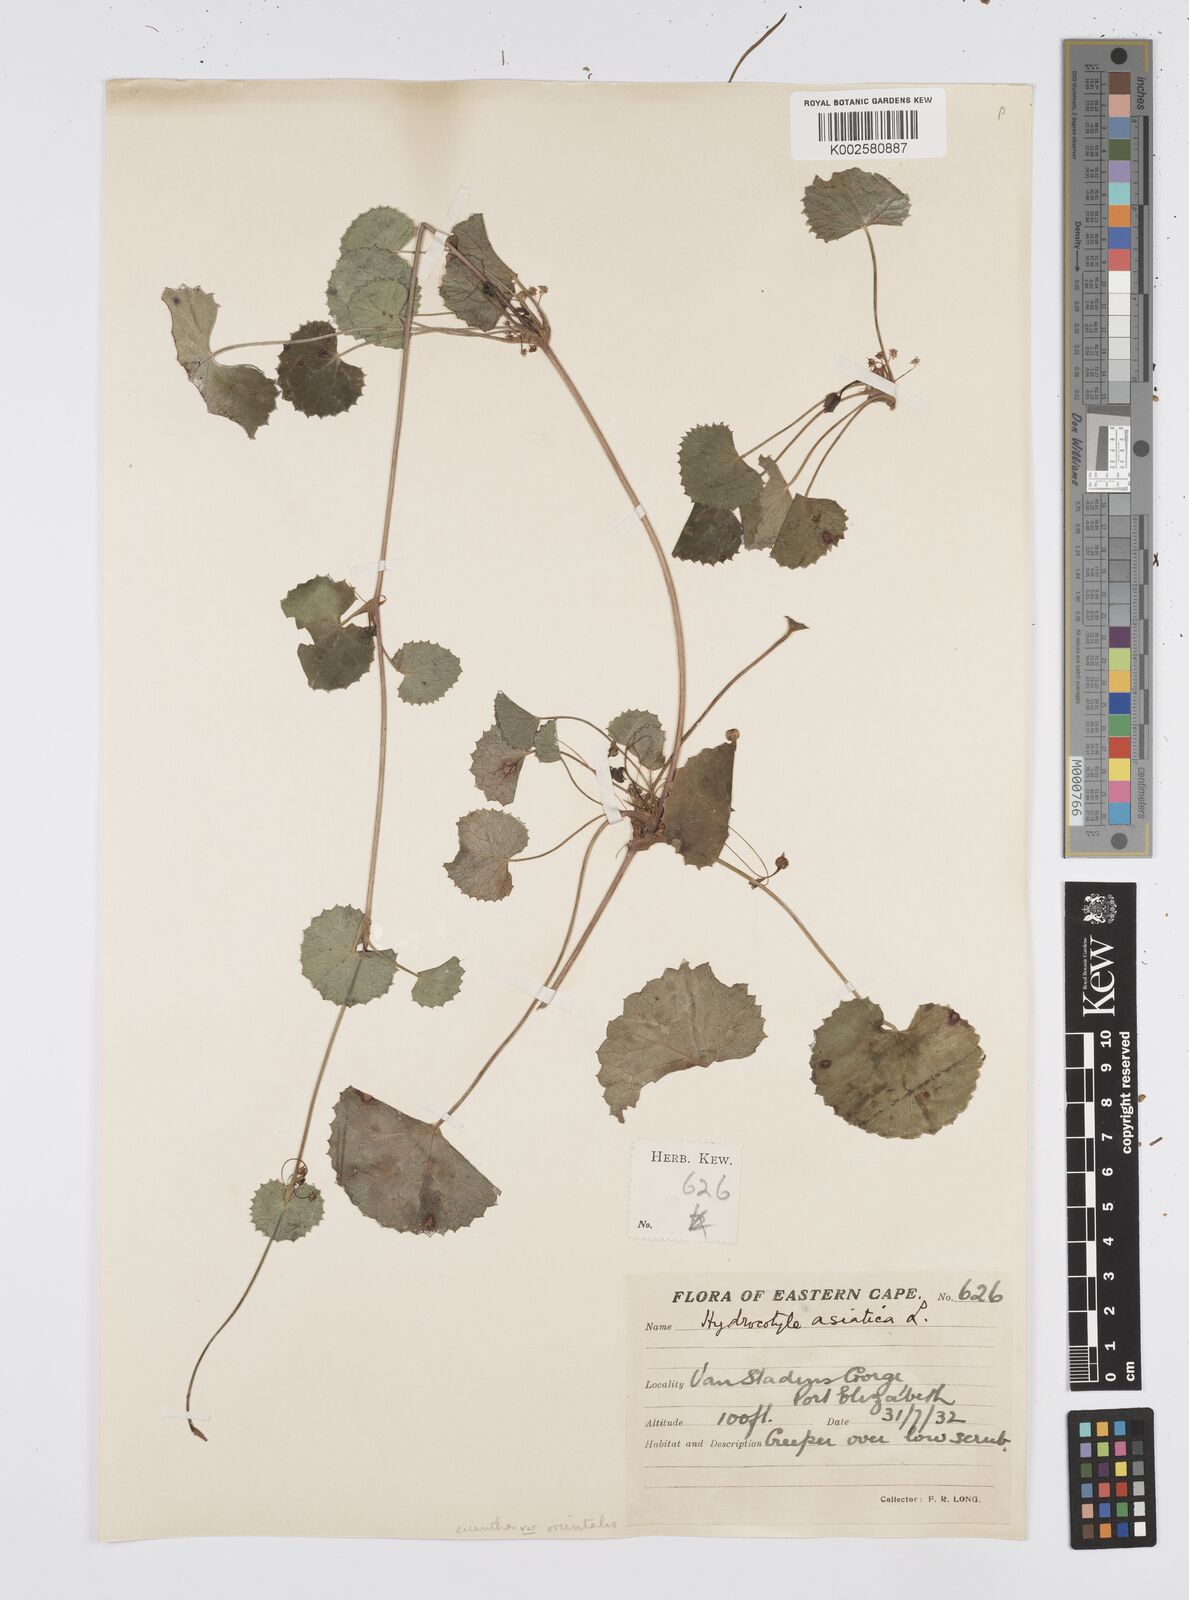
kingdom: Plantae
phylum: Tracheophyta
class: Magnoliopsida
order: Apiales
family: Apiaceae
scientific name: Apiaceae
